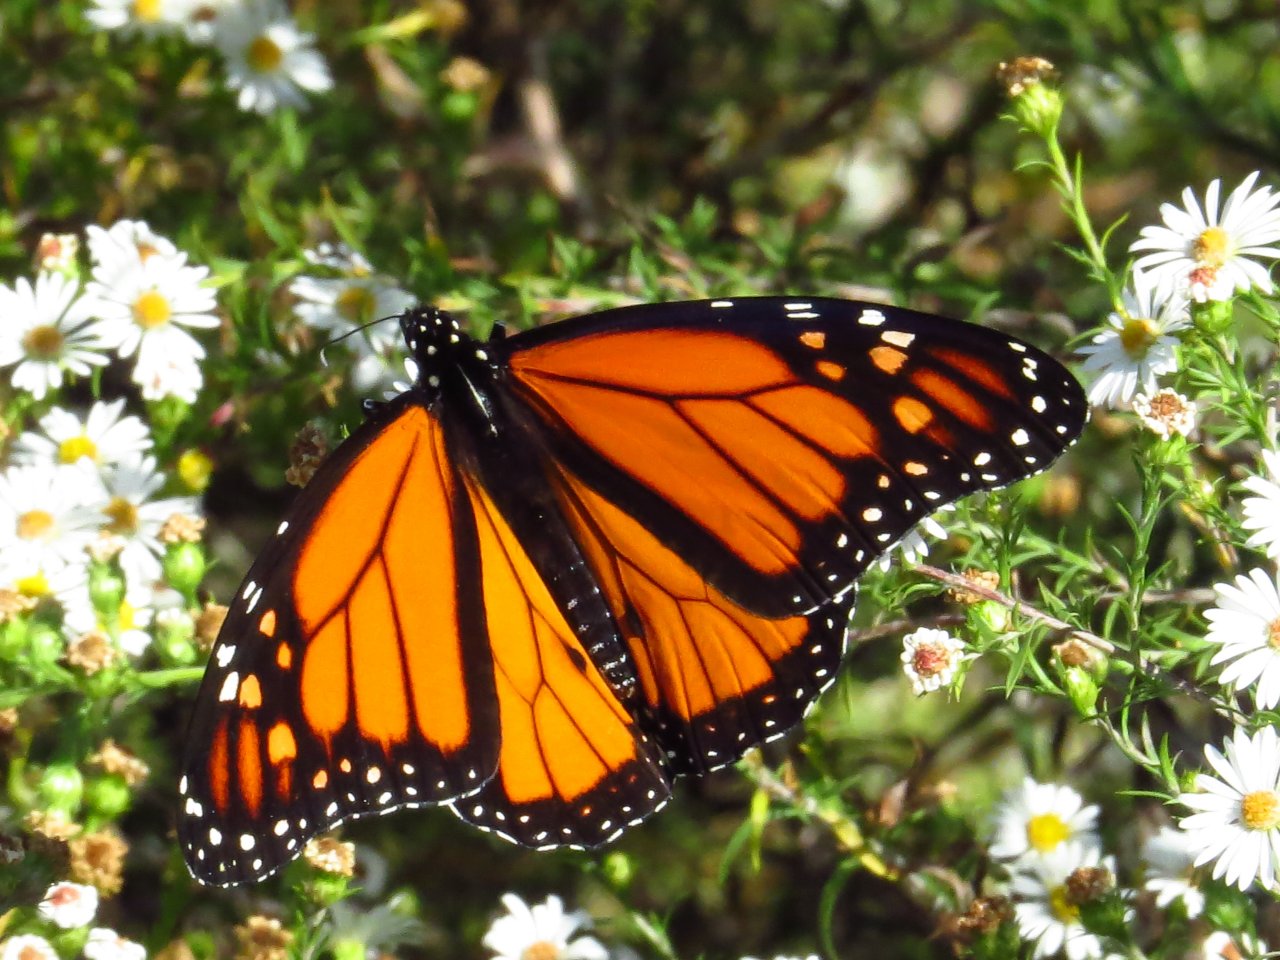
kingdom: Animalia
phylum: Arthropoda
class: Insecta
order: Lepidoptera
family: Nymphalidae
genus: Danaus
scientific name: Danaus plexippus
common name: Monarch
